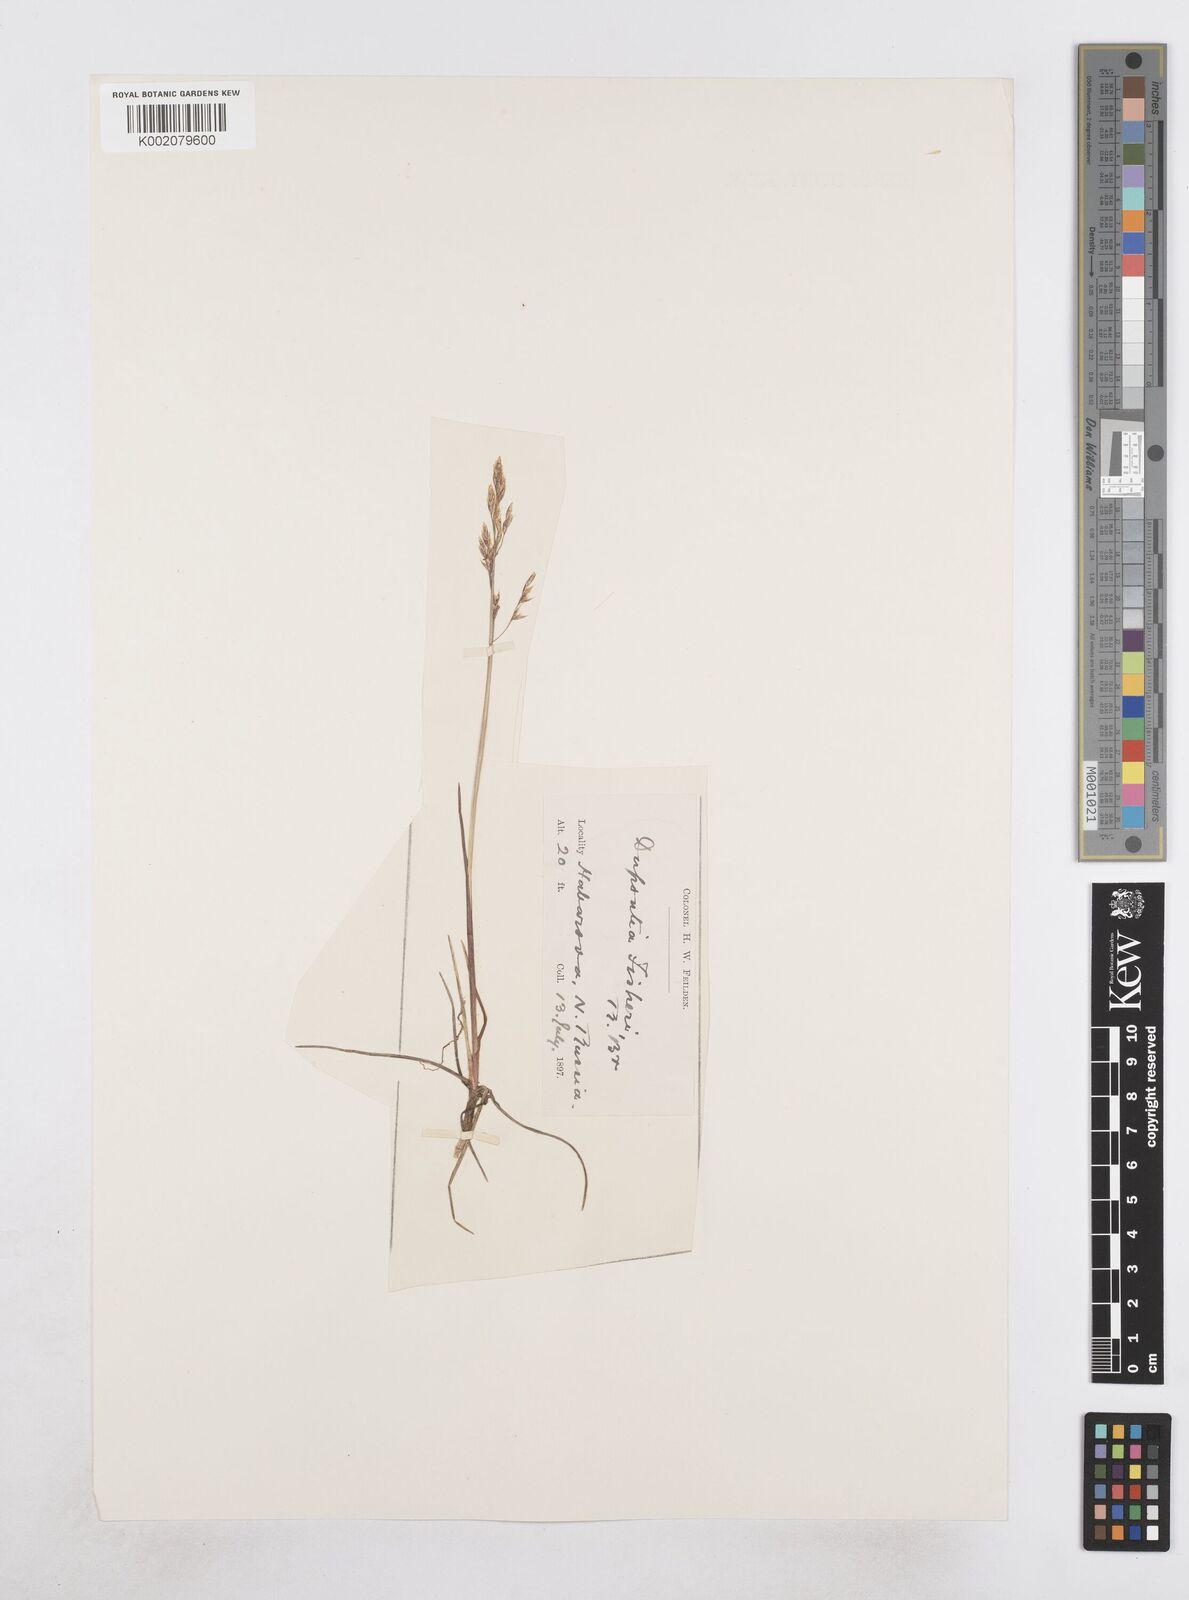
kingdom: Plantae
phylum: Tracheophyta
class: Liliopsida
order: Poales
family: Poaceae
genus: Dupontia
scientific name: Dupontia fisheri
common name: Tundra grass
